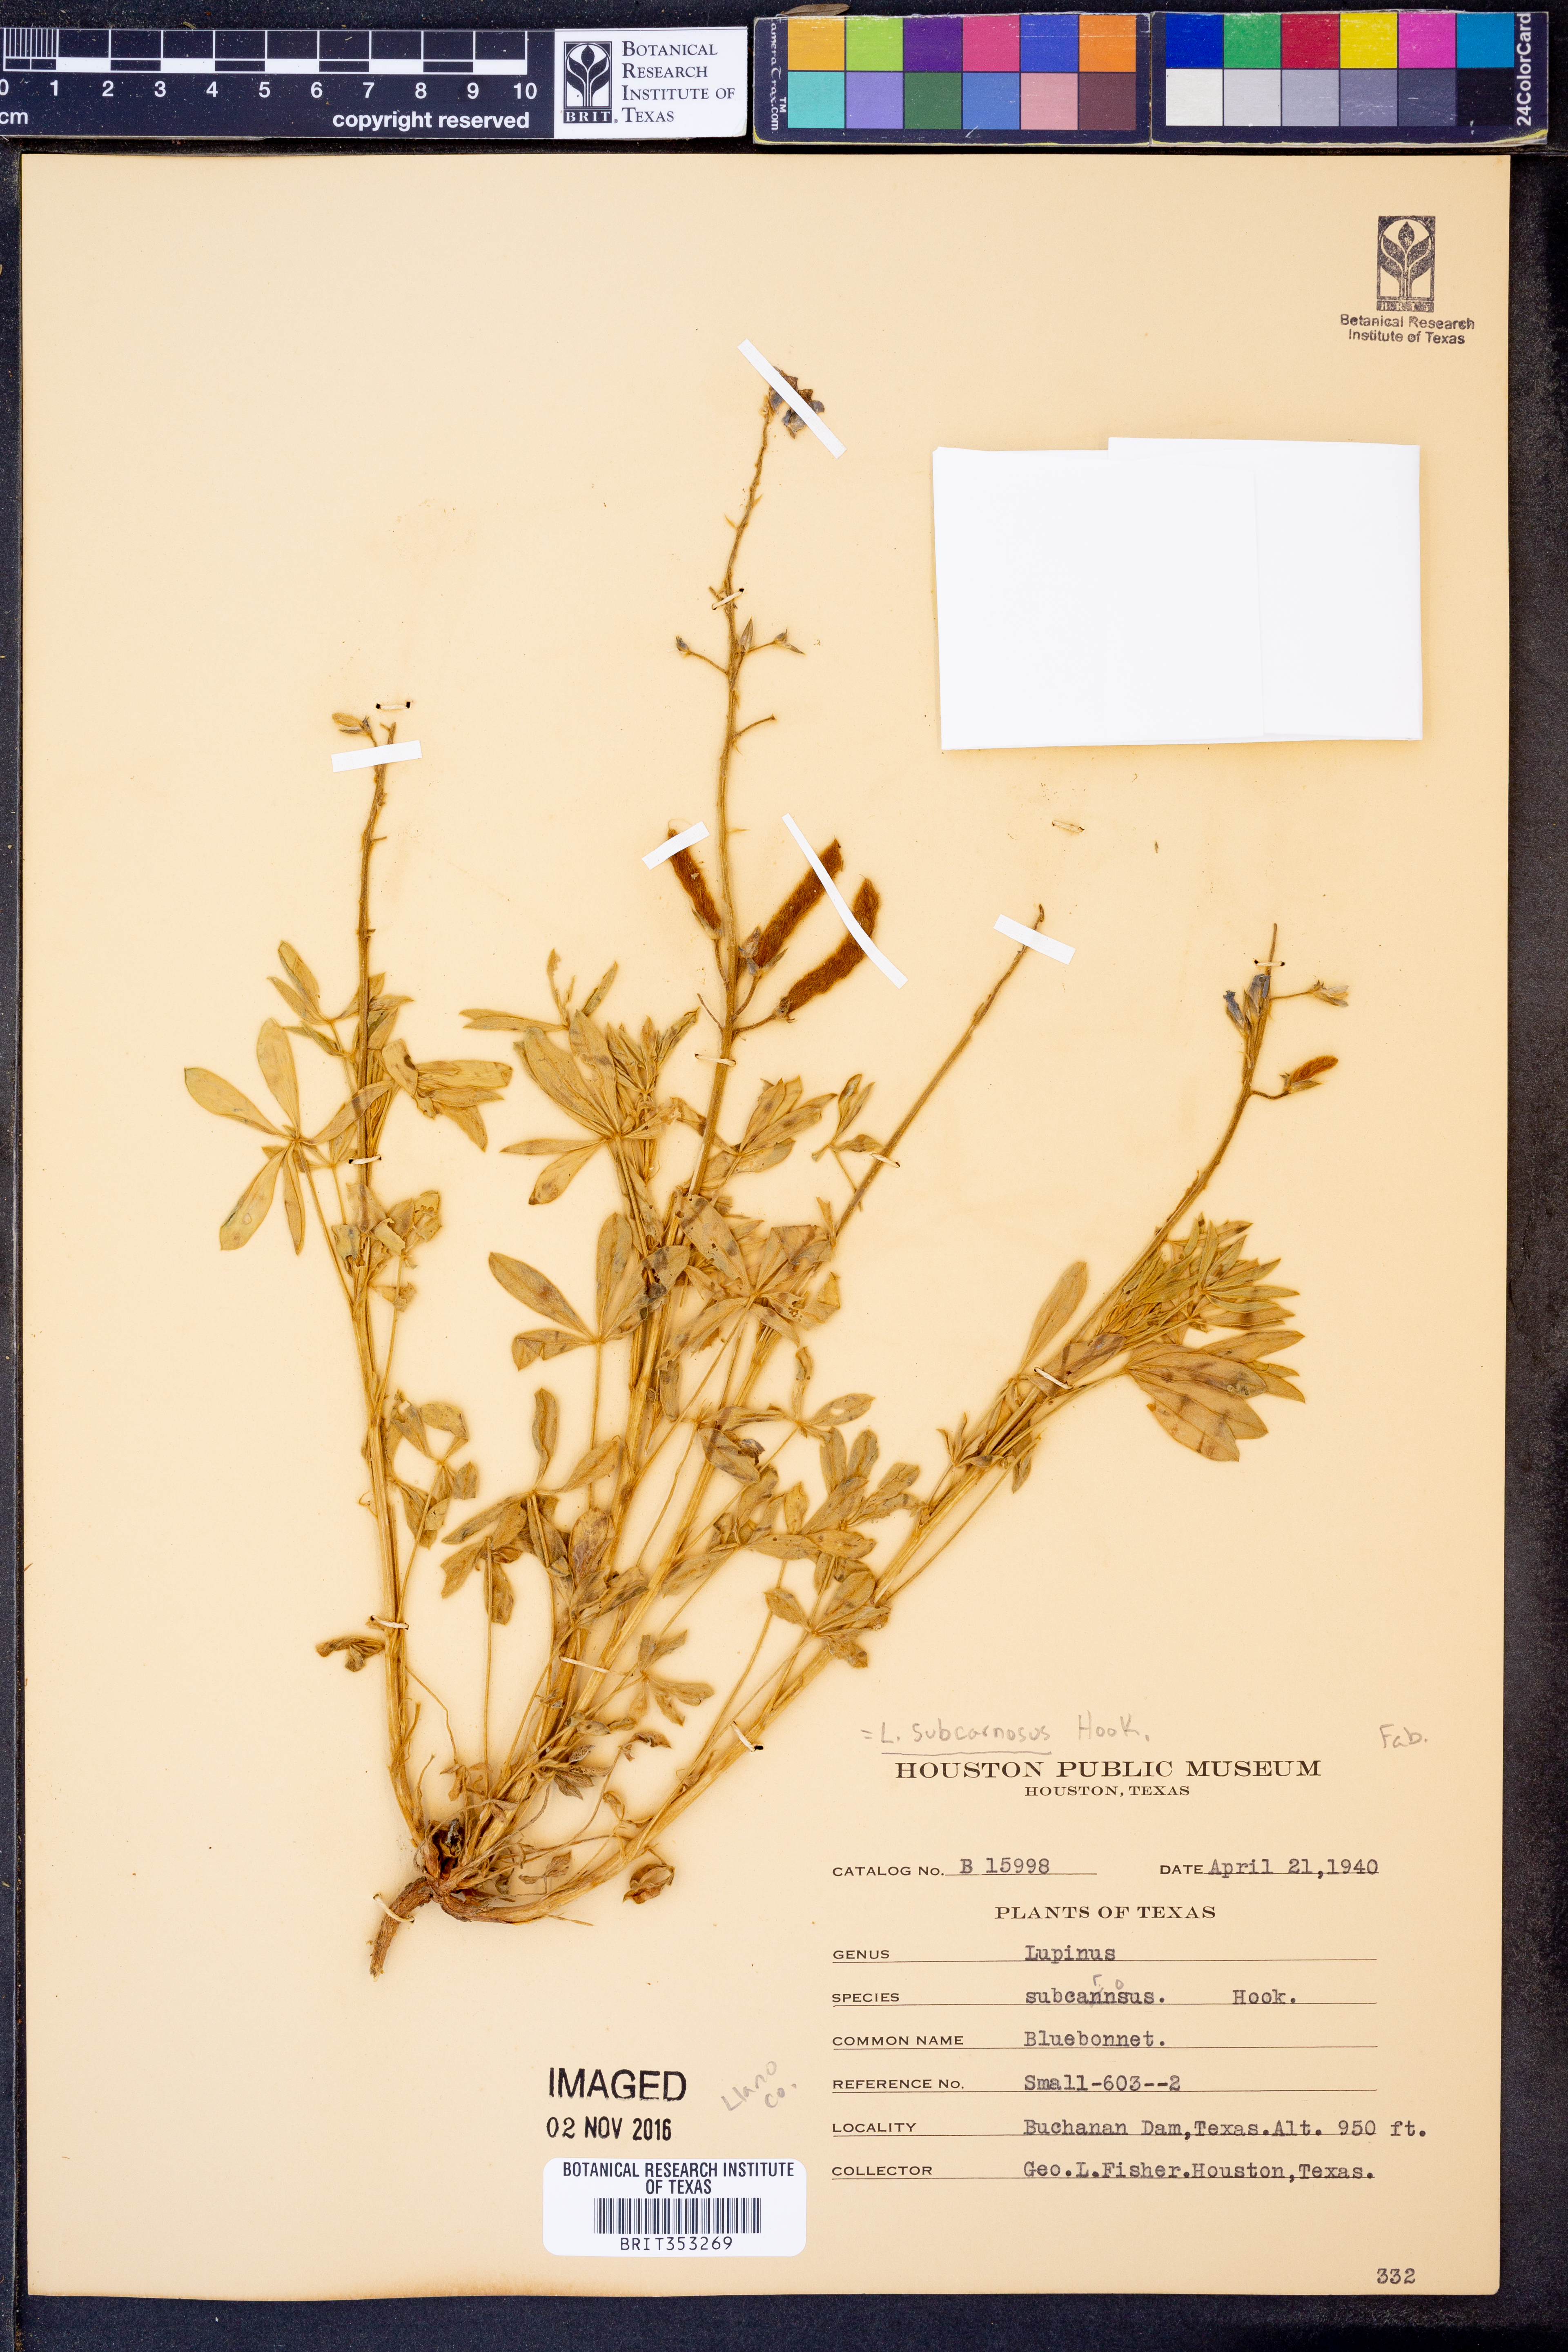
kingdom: Plantae
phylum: Tracheophyta
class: Magnoliopsida
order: Fabales
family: Fabaceae
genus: Lupinus
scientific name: Lupinus subcarnosus
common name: Texas bluebonnet
